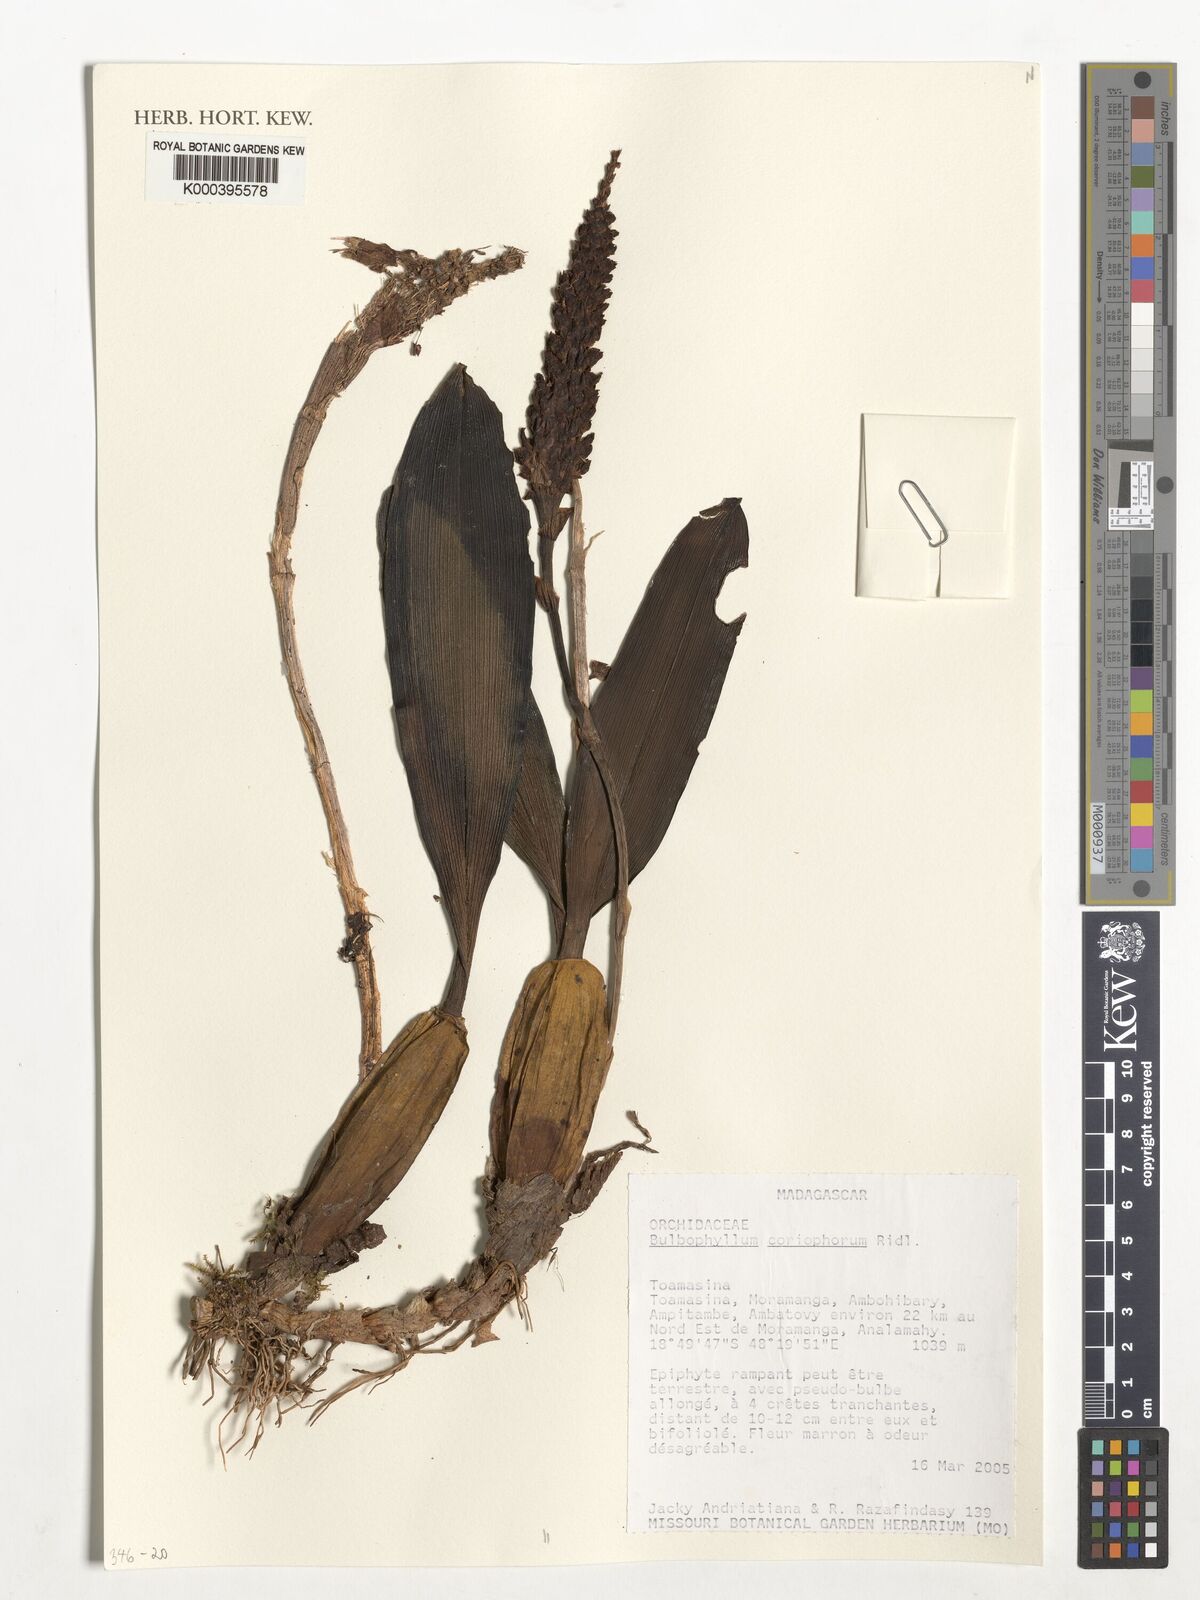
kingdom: Plantae
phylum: Tracheophyta
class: Liliopsida
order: Asparagales
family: Orchidaceae
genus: Bulbophyllum
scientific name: Bulbophyllum coriophorum
